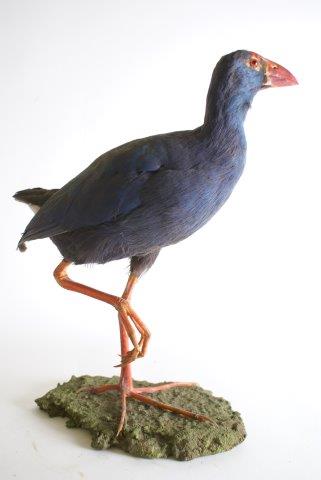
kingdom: Animalia
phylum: Chordata
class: Aves
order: Gruiformes
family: Rallidae
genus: Porphyrio
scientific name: Porphyrio porphyrio
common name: Purperkoet
